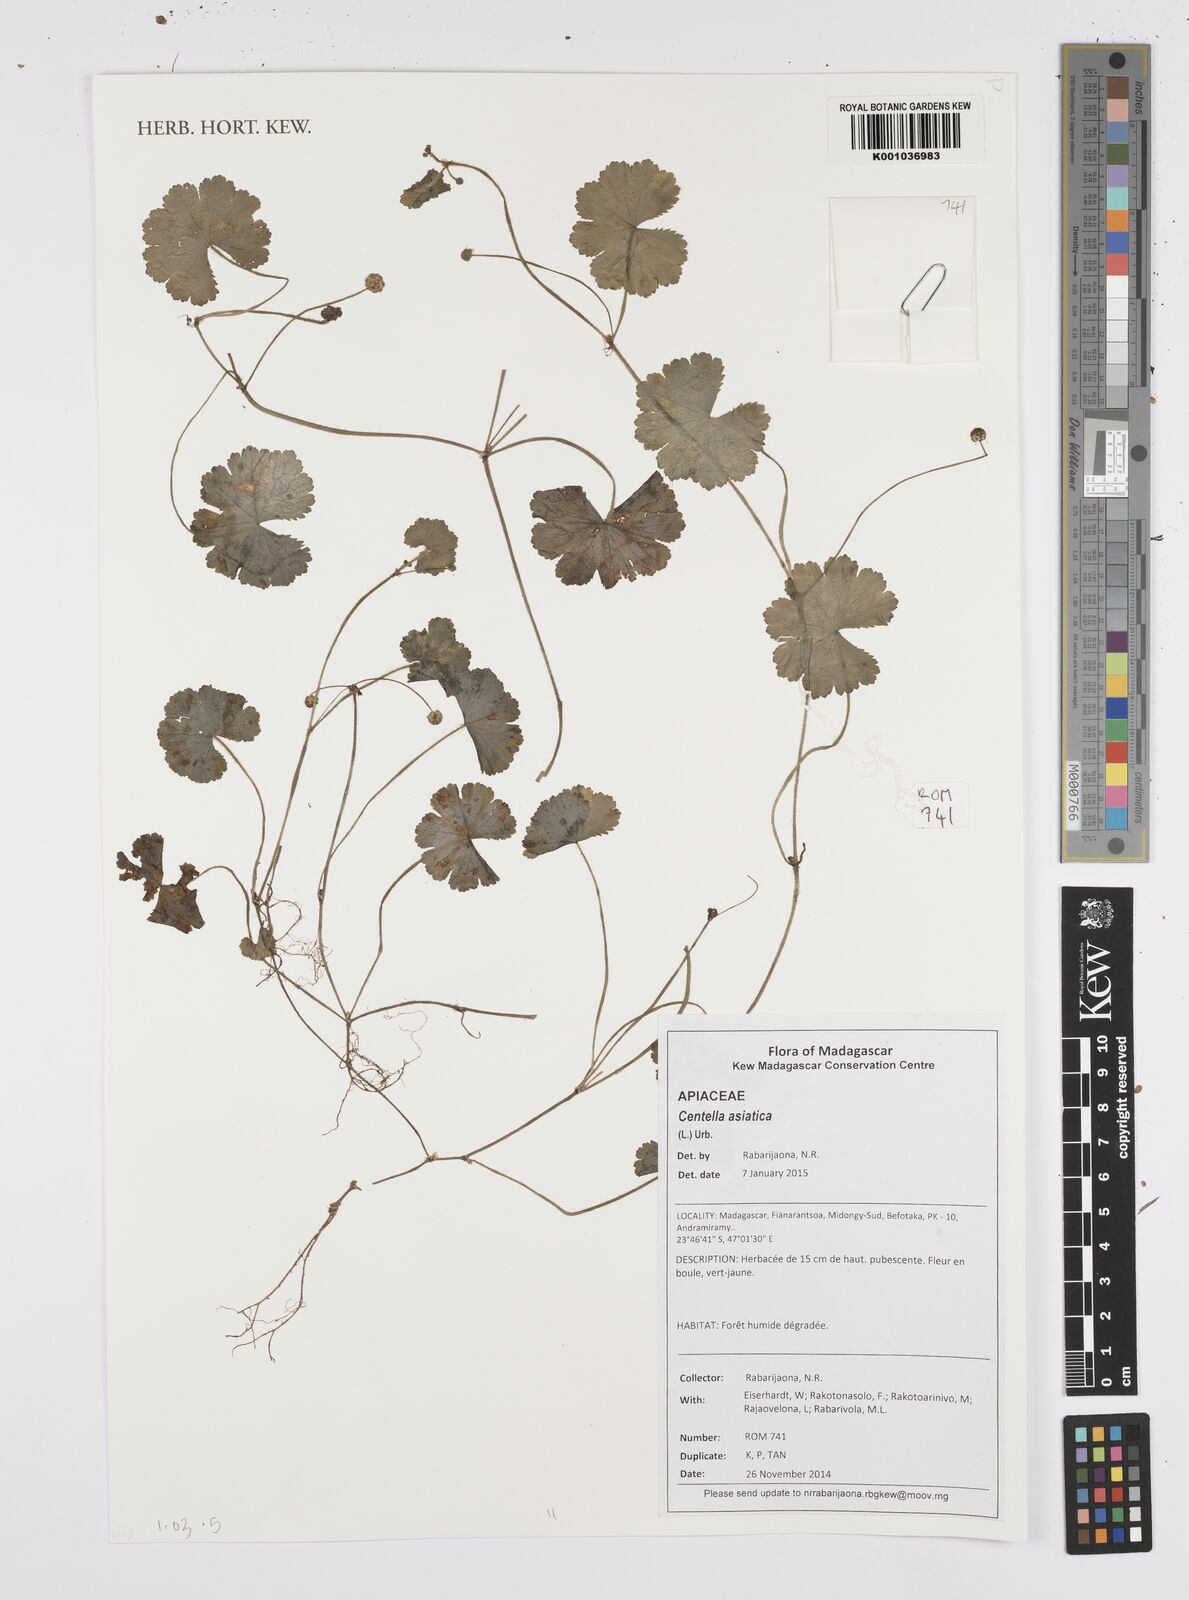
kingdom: Plantae
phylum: Tracheophyta
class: Magnoliopsida
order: Apiales
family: Apiaceae
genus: Centella
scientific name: Centella asiatica
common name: Spadeleaf
